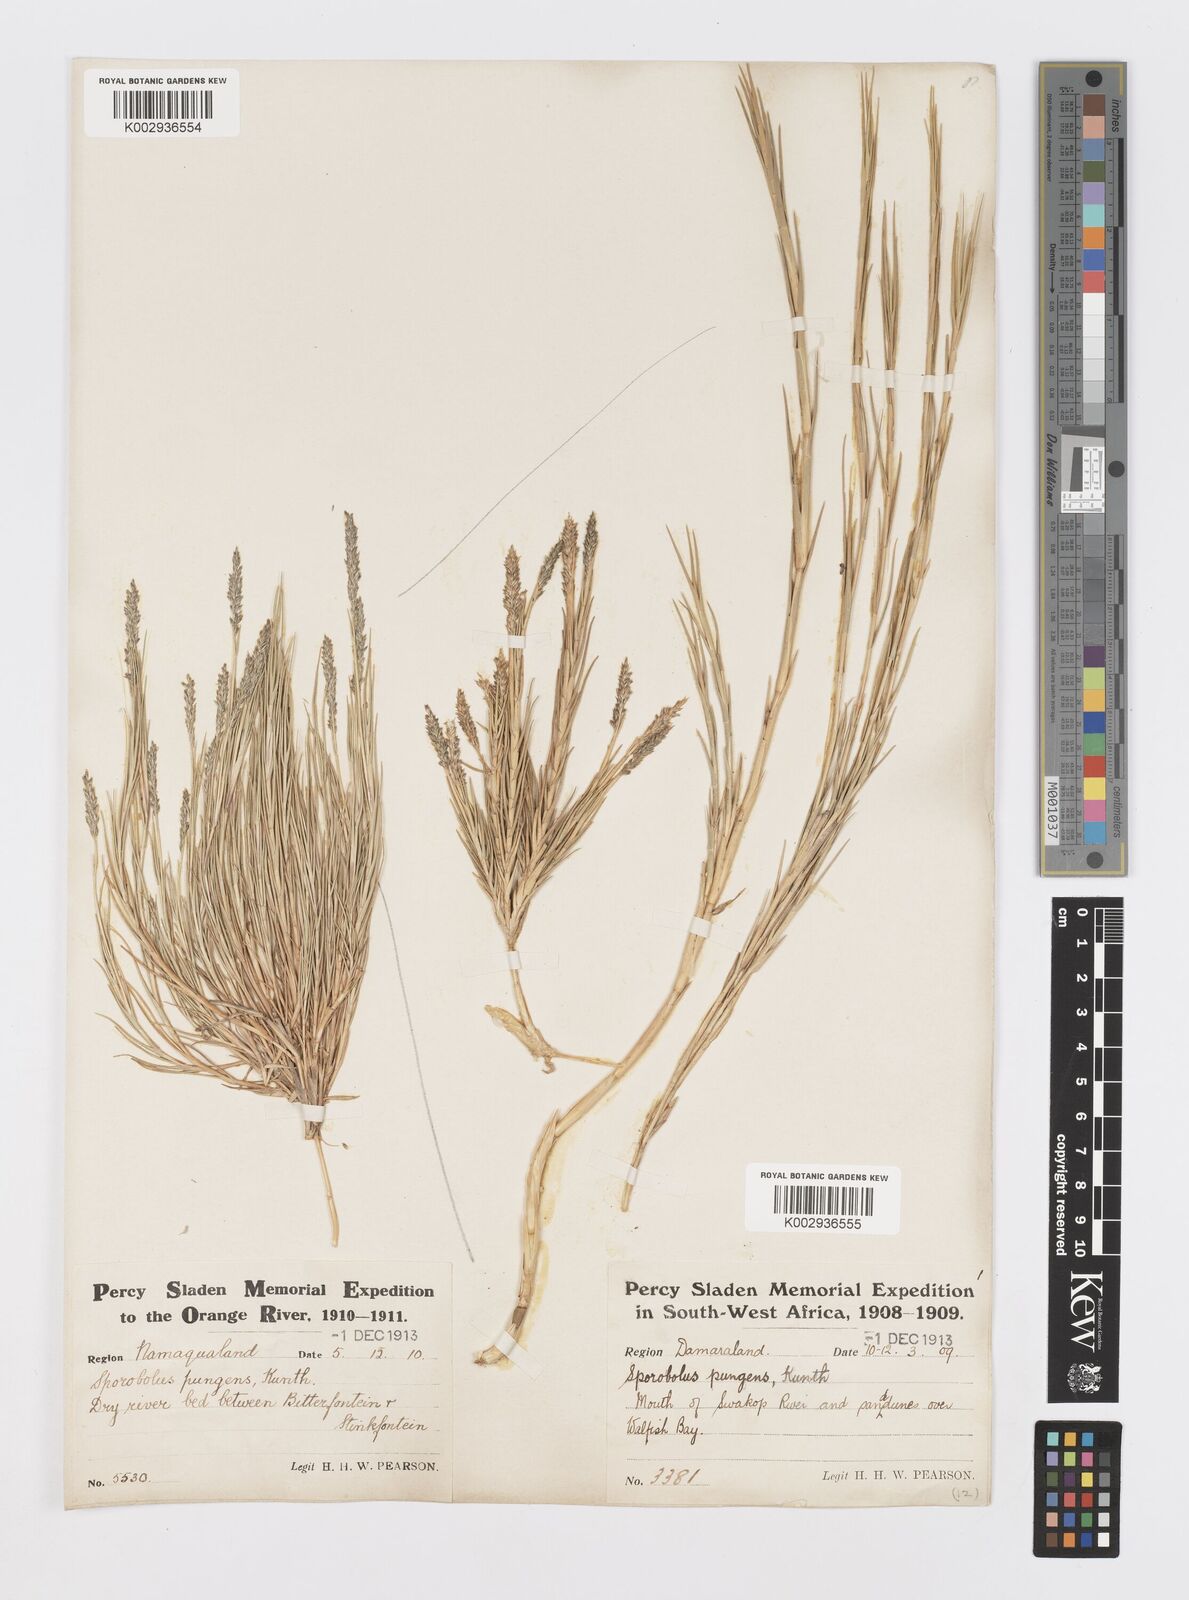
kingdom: Plantae
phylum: Tracheophyta
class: Liliopsida
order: Poales
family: Poaceae
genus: Sporobolus
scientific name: Sporobolus virginicus
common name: Beach dropseed
